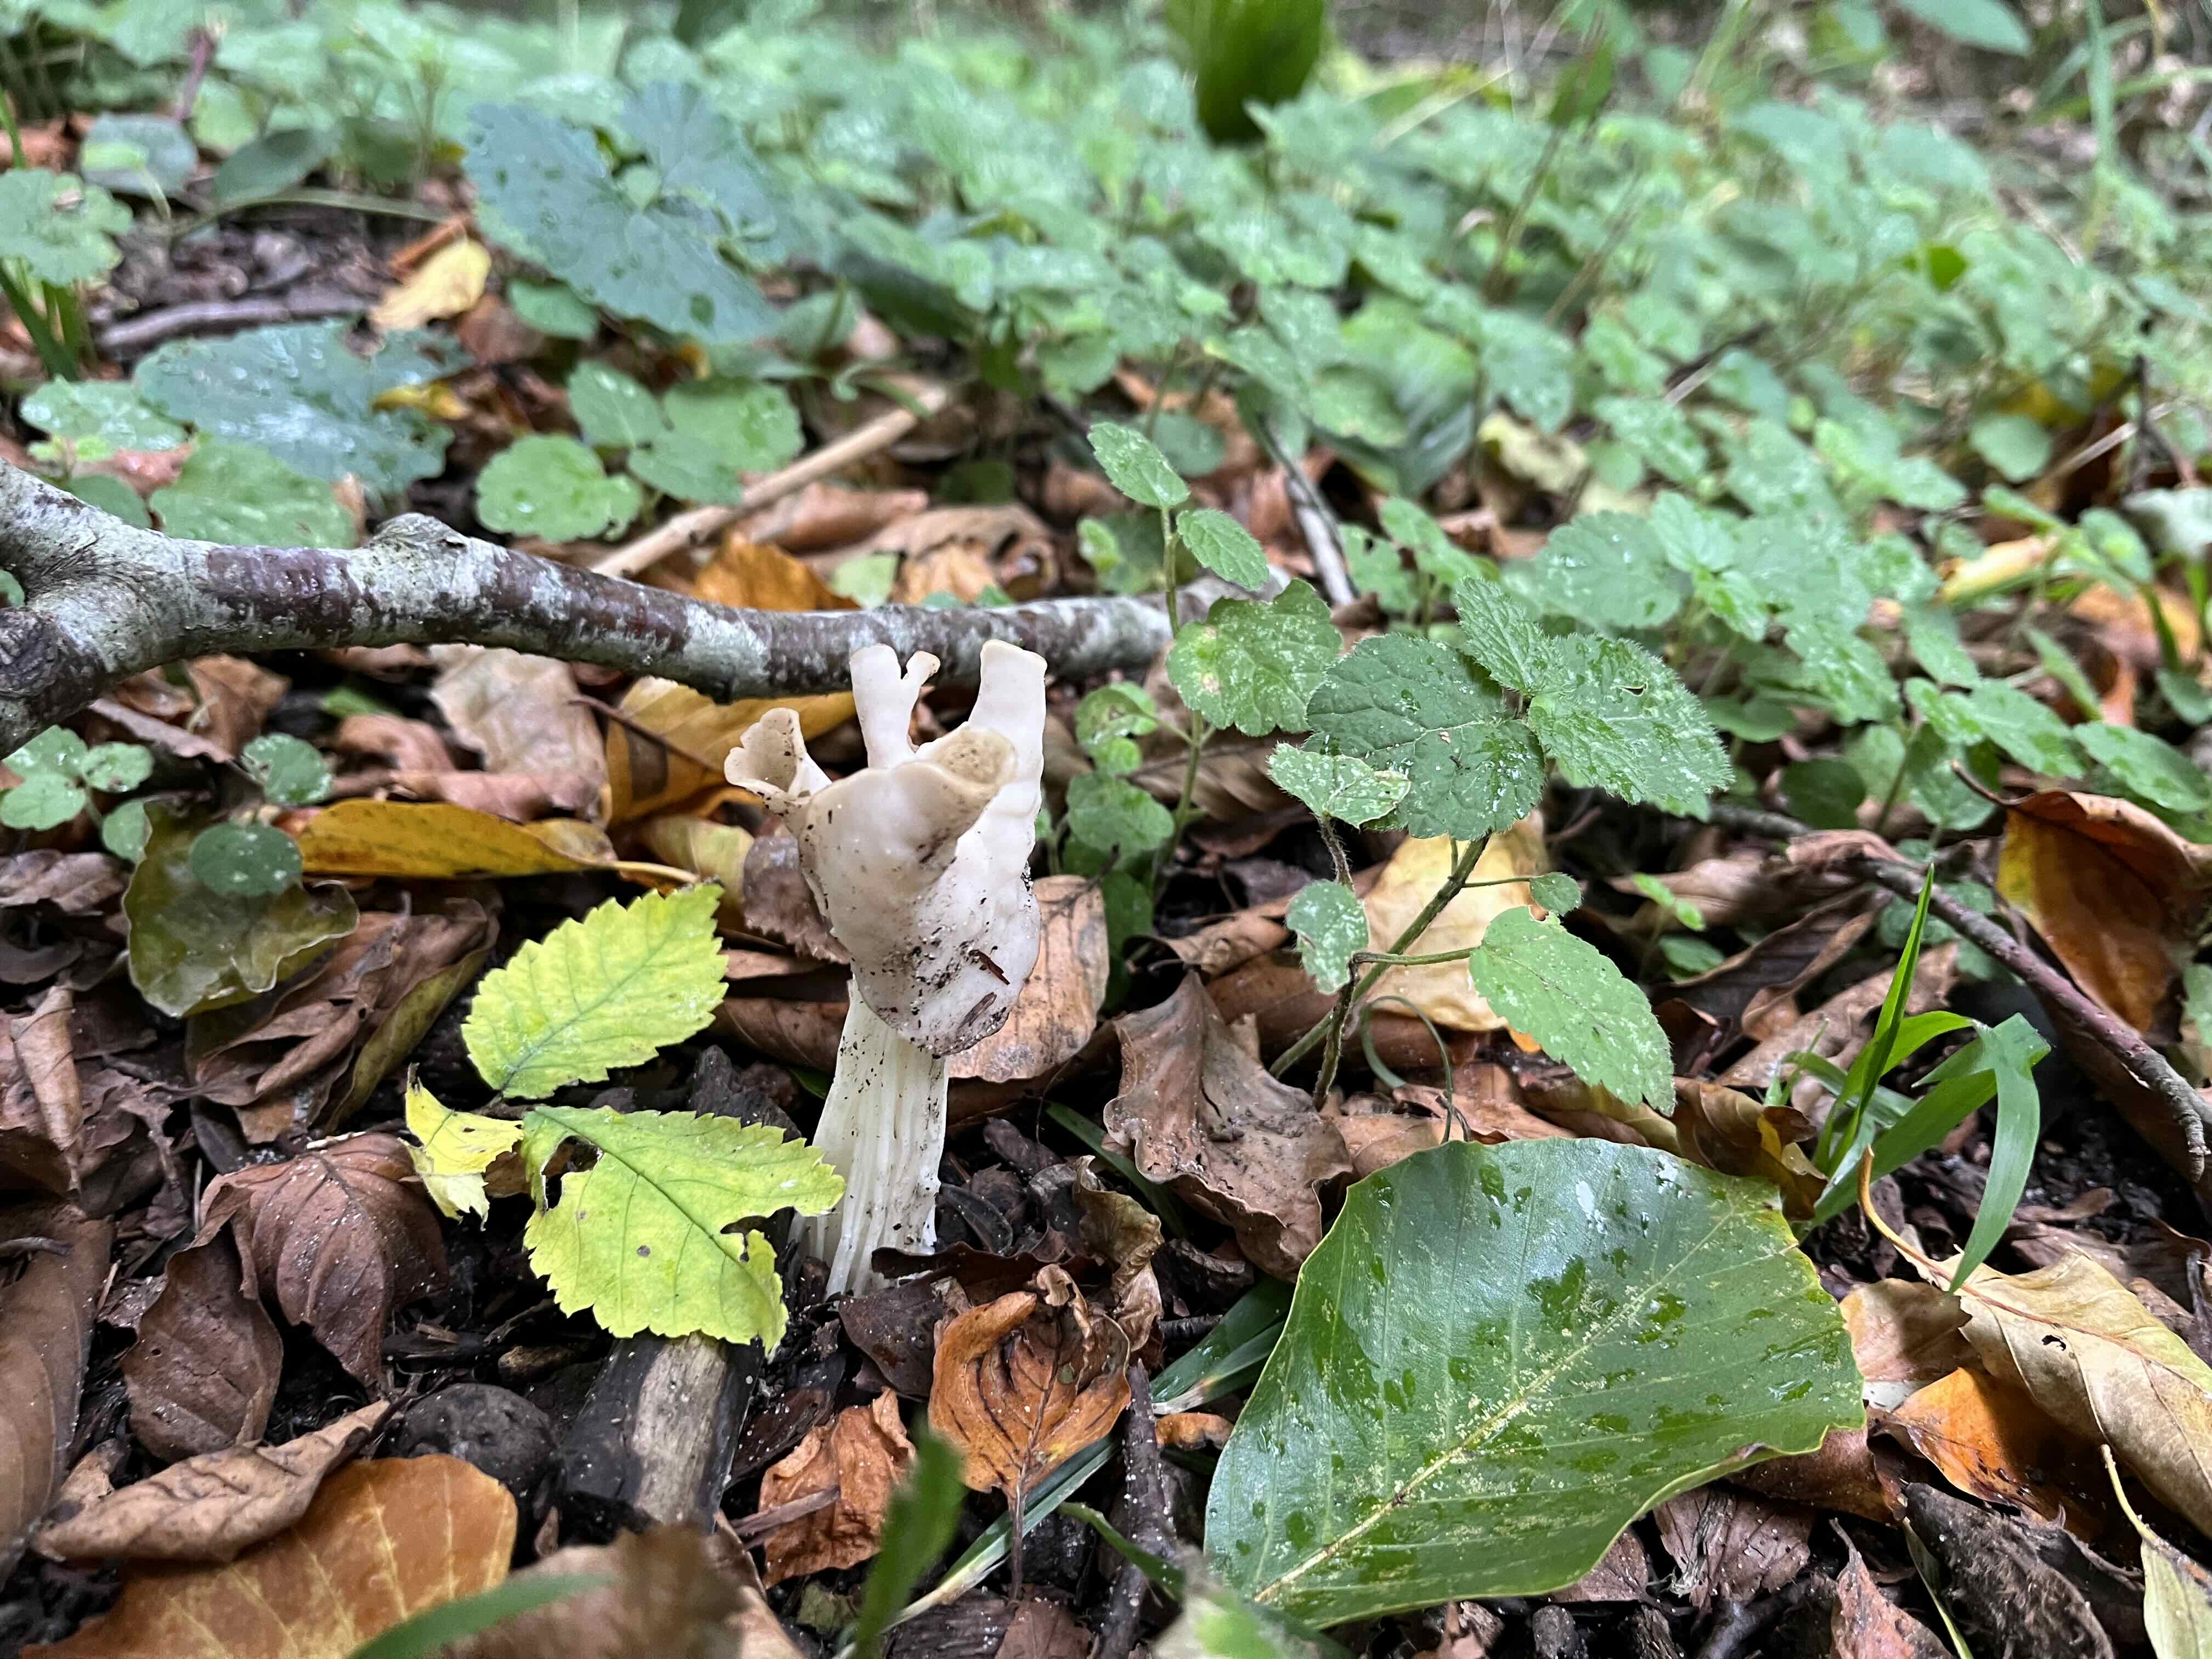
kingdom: Fungi
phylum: Ascomycota
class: Pezizomycetes
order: Pezizales
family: Helvellaceae
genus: Helvella
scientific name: Helvella crispa
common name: kruset foldhat
